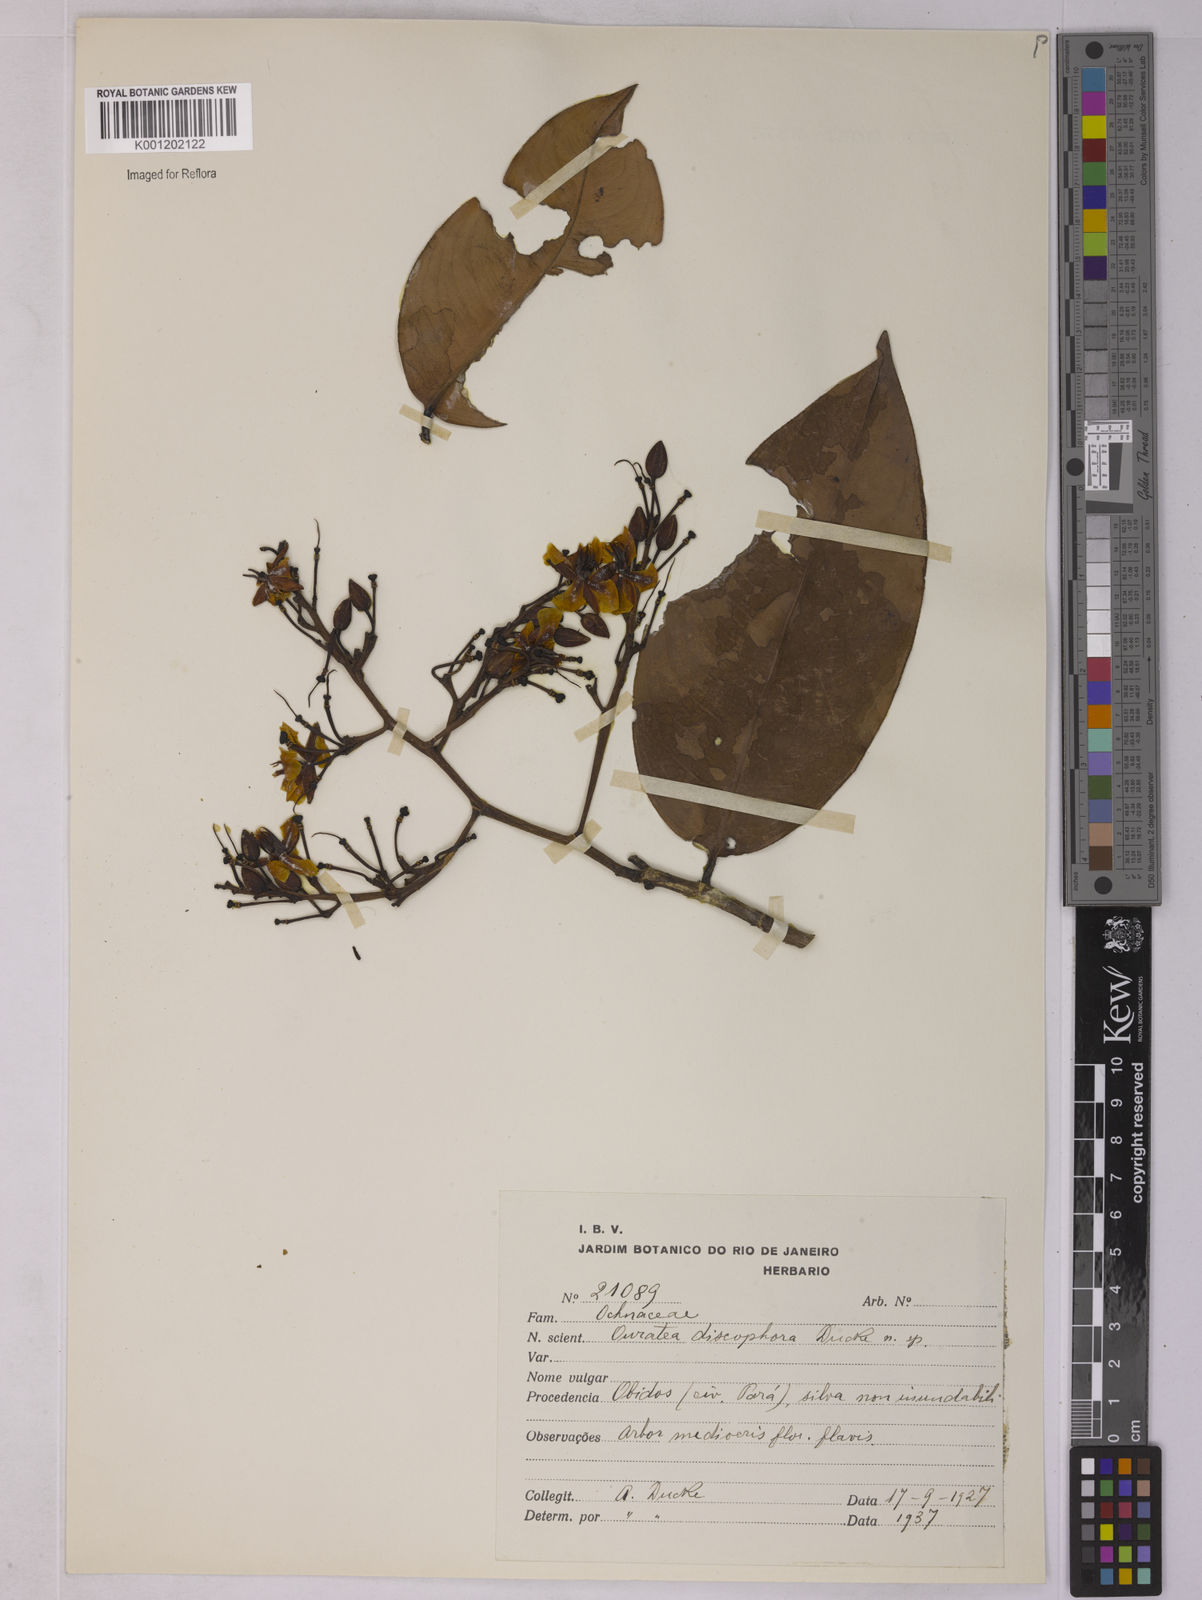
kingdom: Plantae
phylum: Tracheophyta
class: Magnoliopsida
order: Malpighiales
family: Ochnaceae
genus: Ouratea
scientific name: Ouratea discophora
